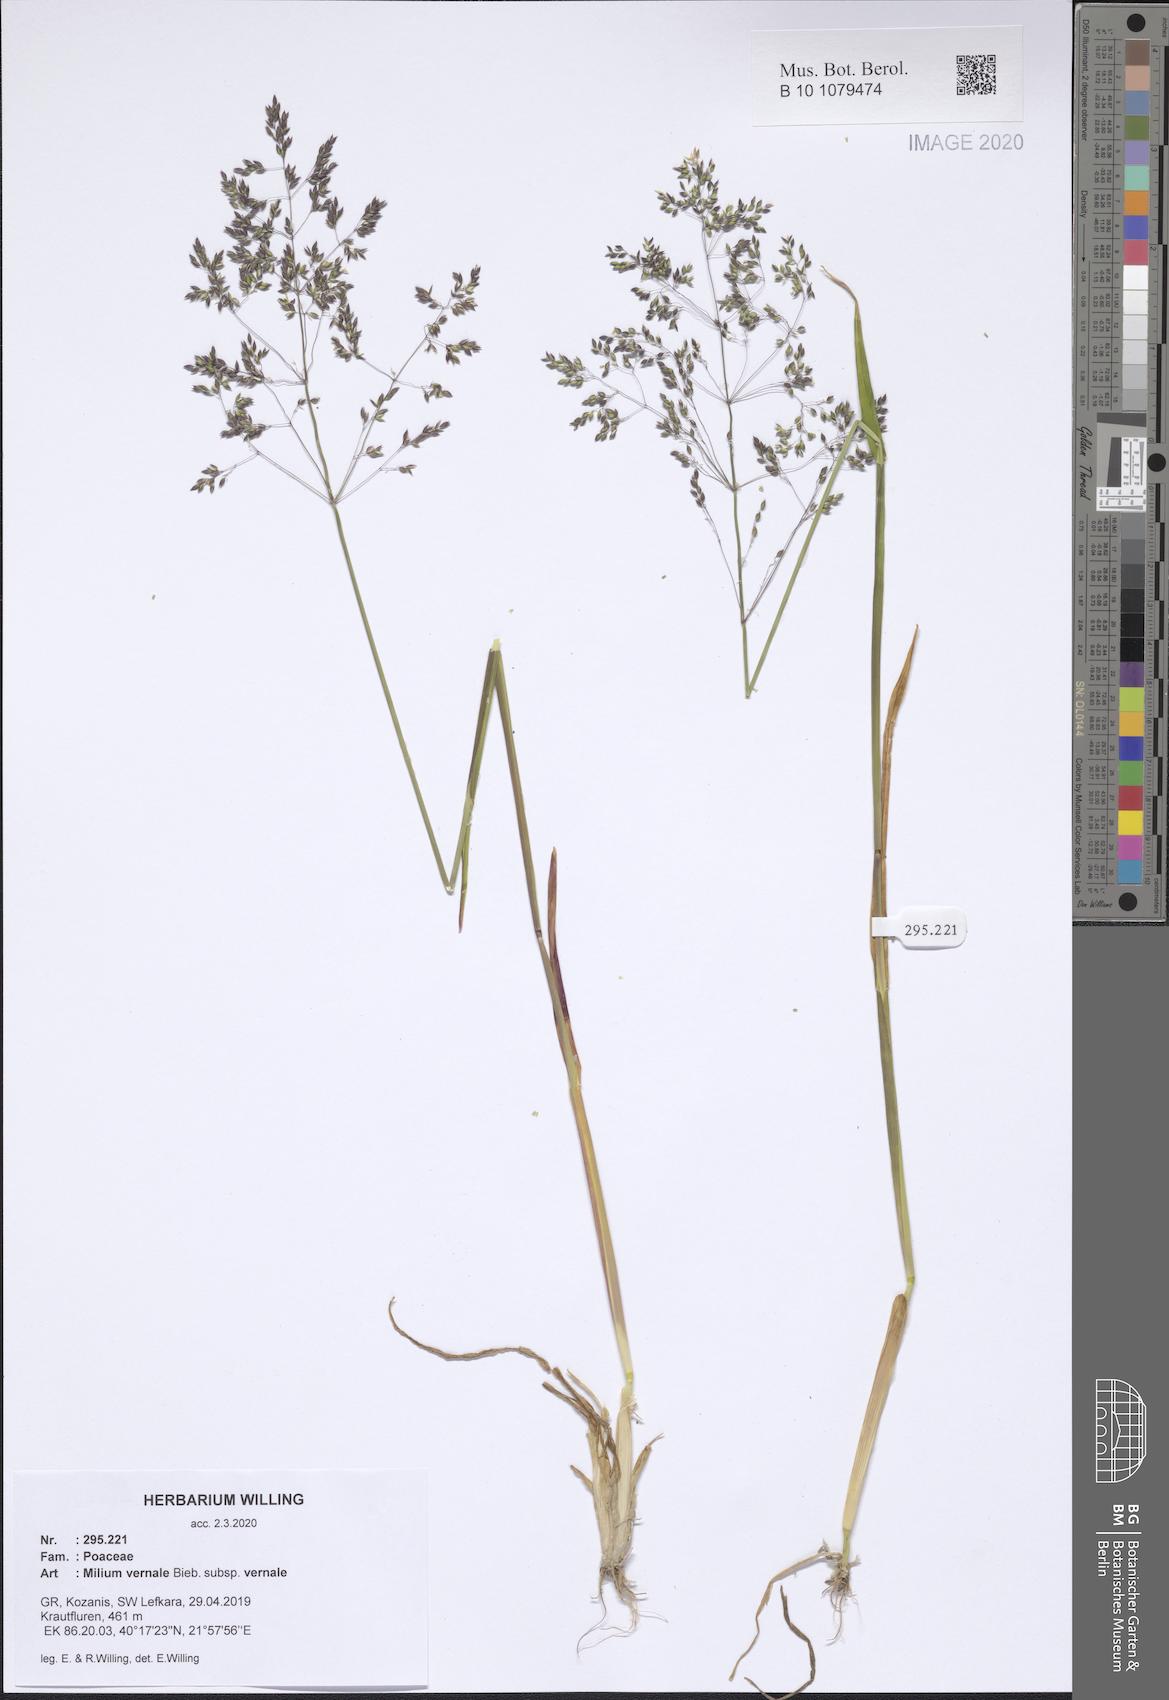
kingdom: Plantae
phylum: Tracheophyta
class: Liliopsida
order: Poales
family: Poaceae
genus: Milium
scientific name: Milium vernale
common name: Early millet
